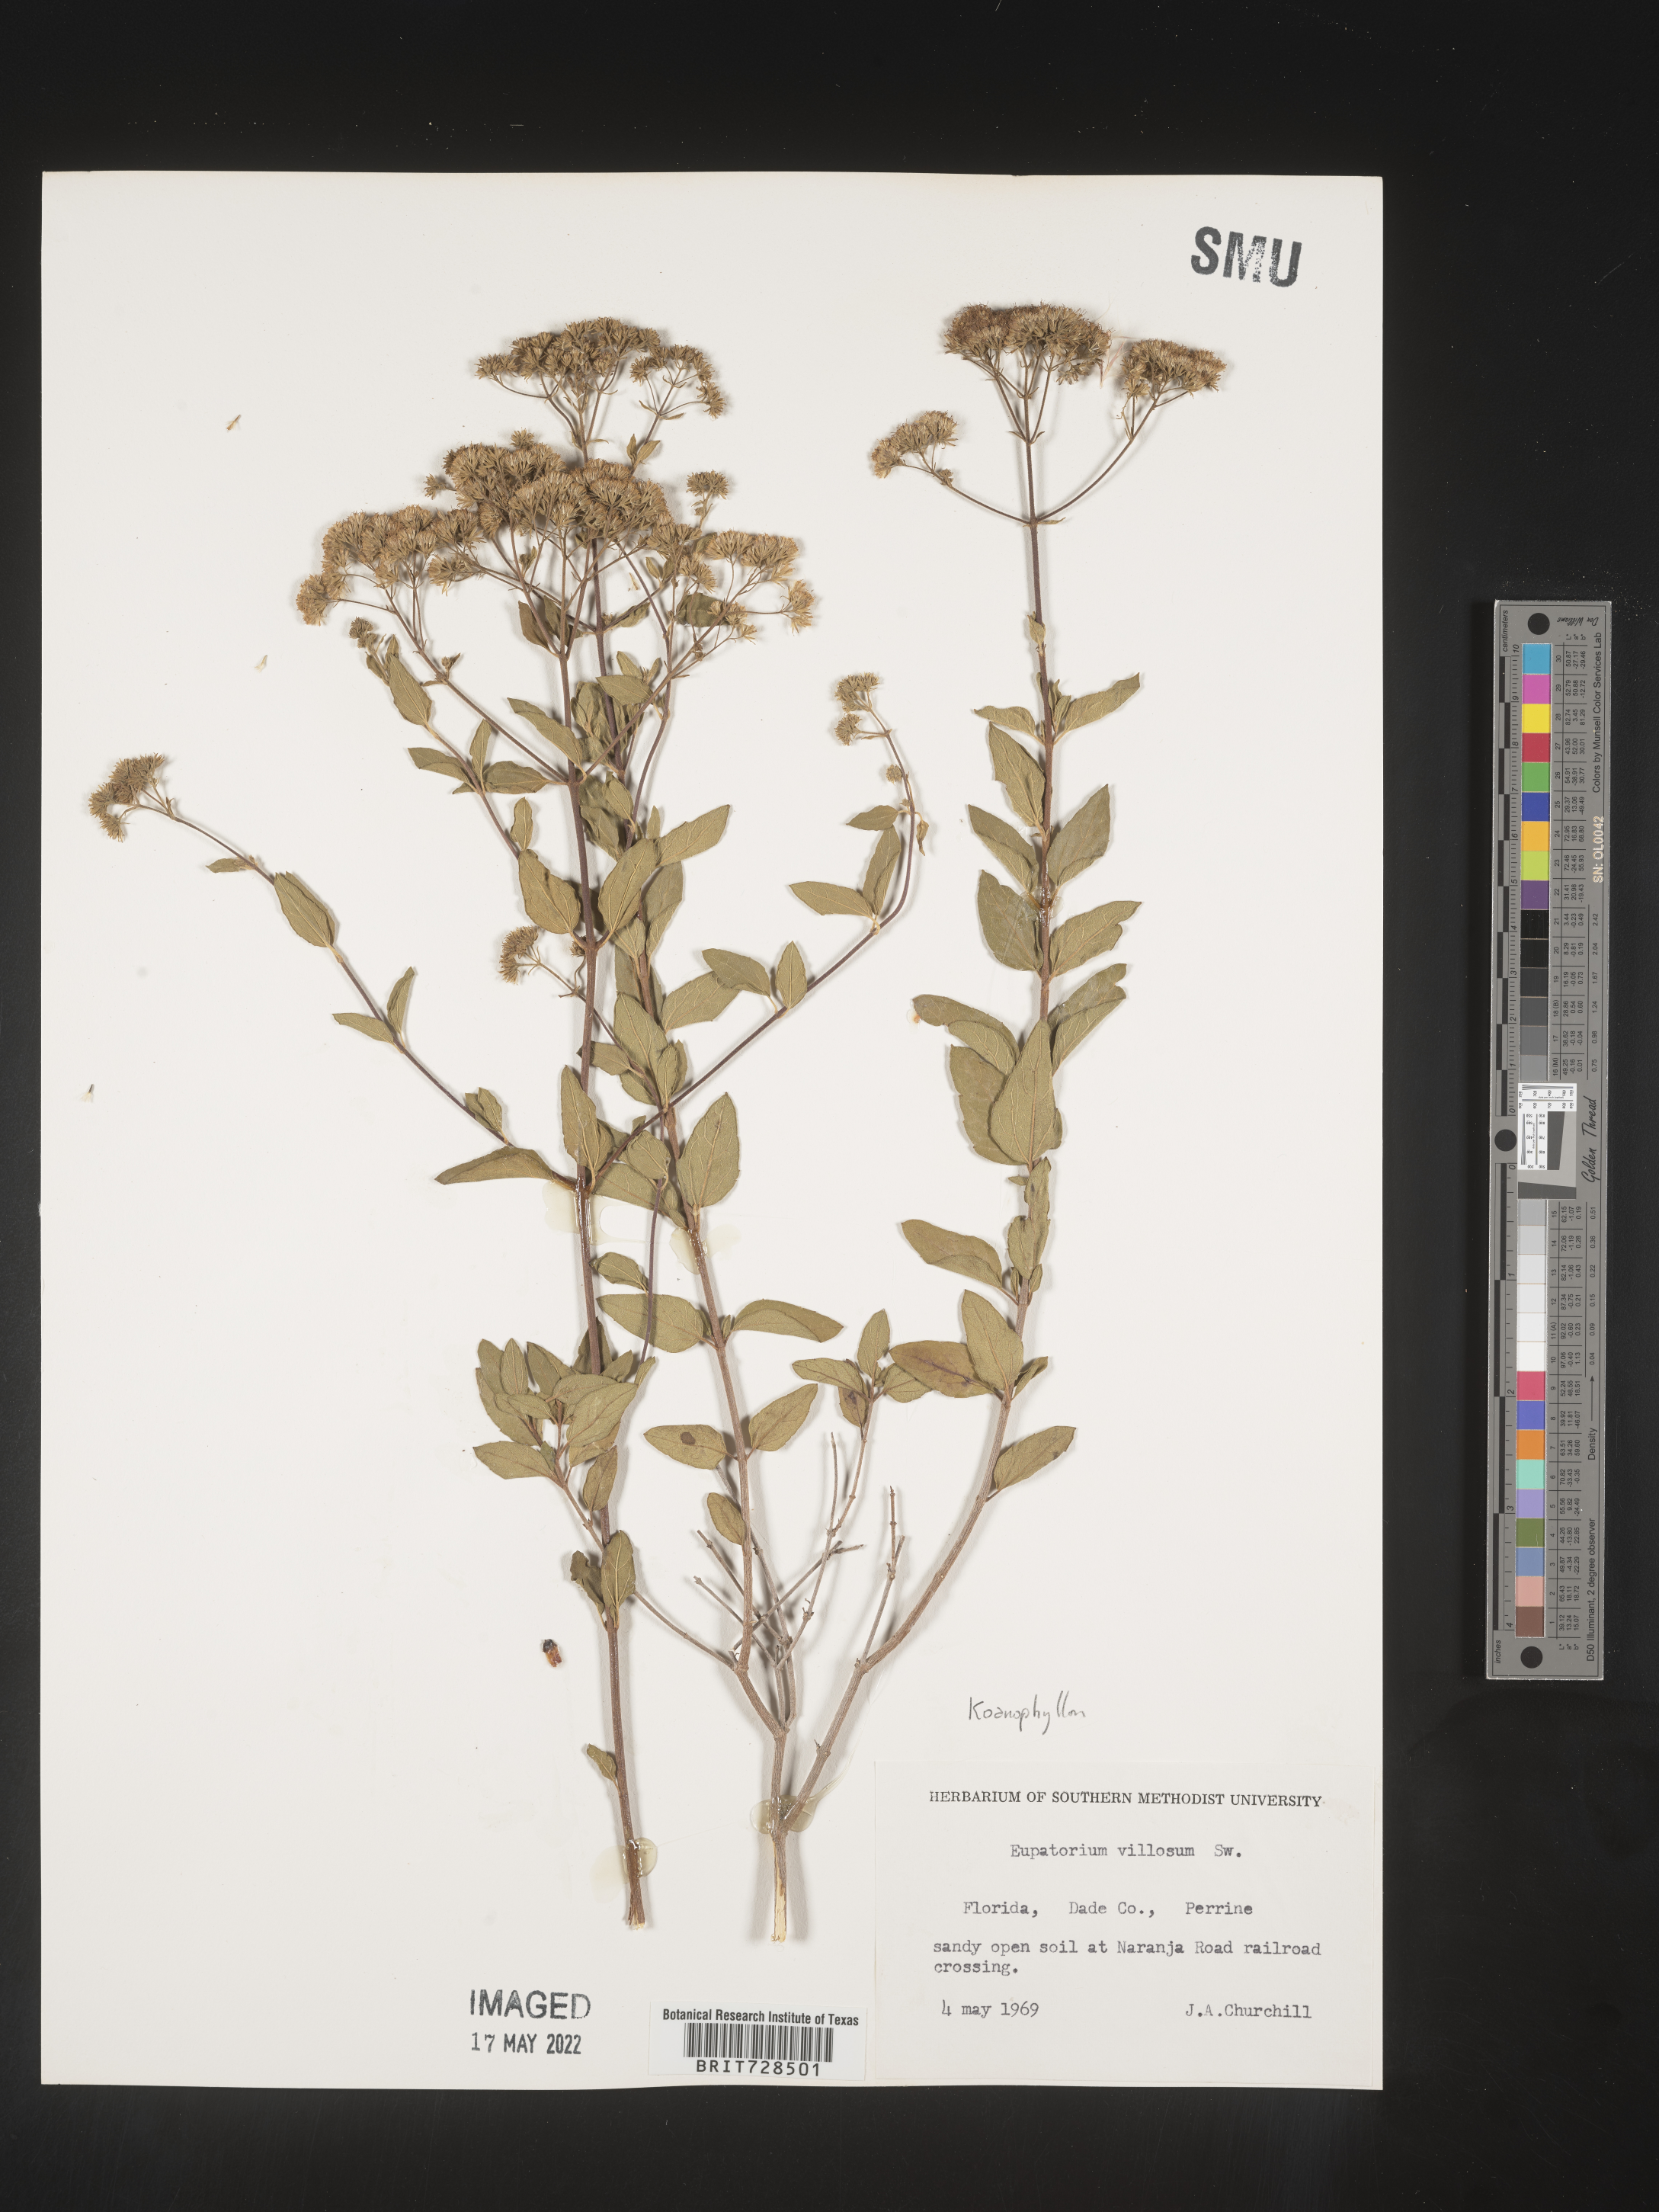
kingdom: Plantae
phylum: Tracheophyta
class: Magnoliopsida
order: Asterales
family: Asteraceae
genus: Koanophyllon
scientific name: Koanophyllon villosum
